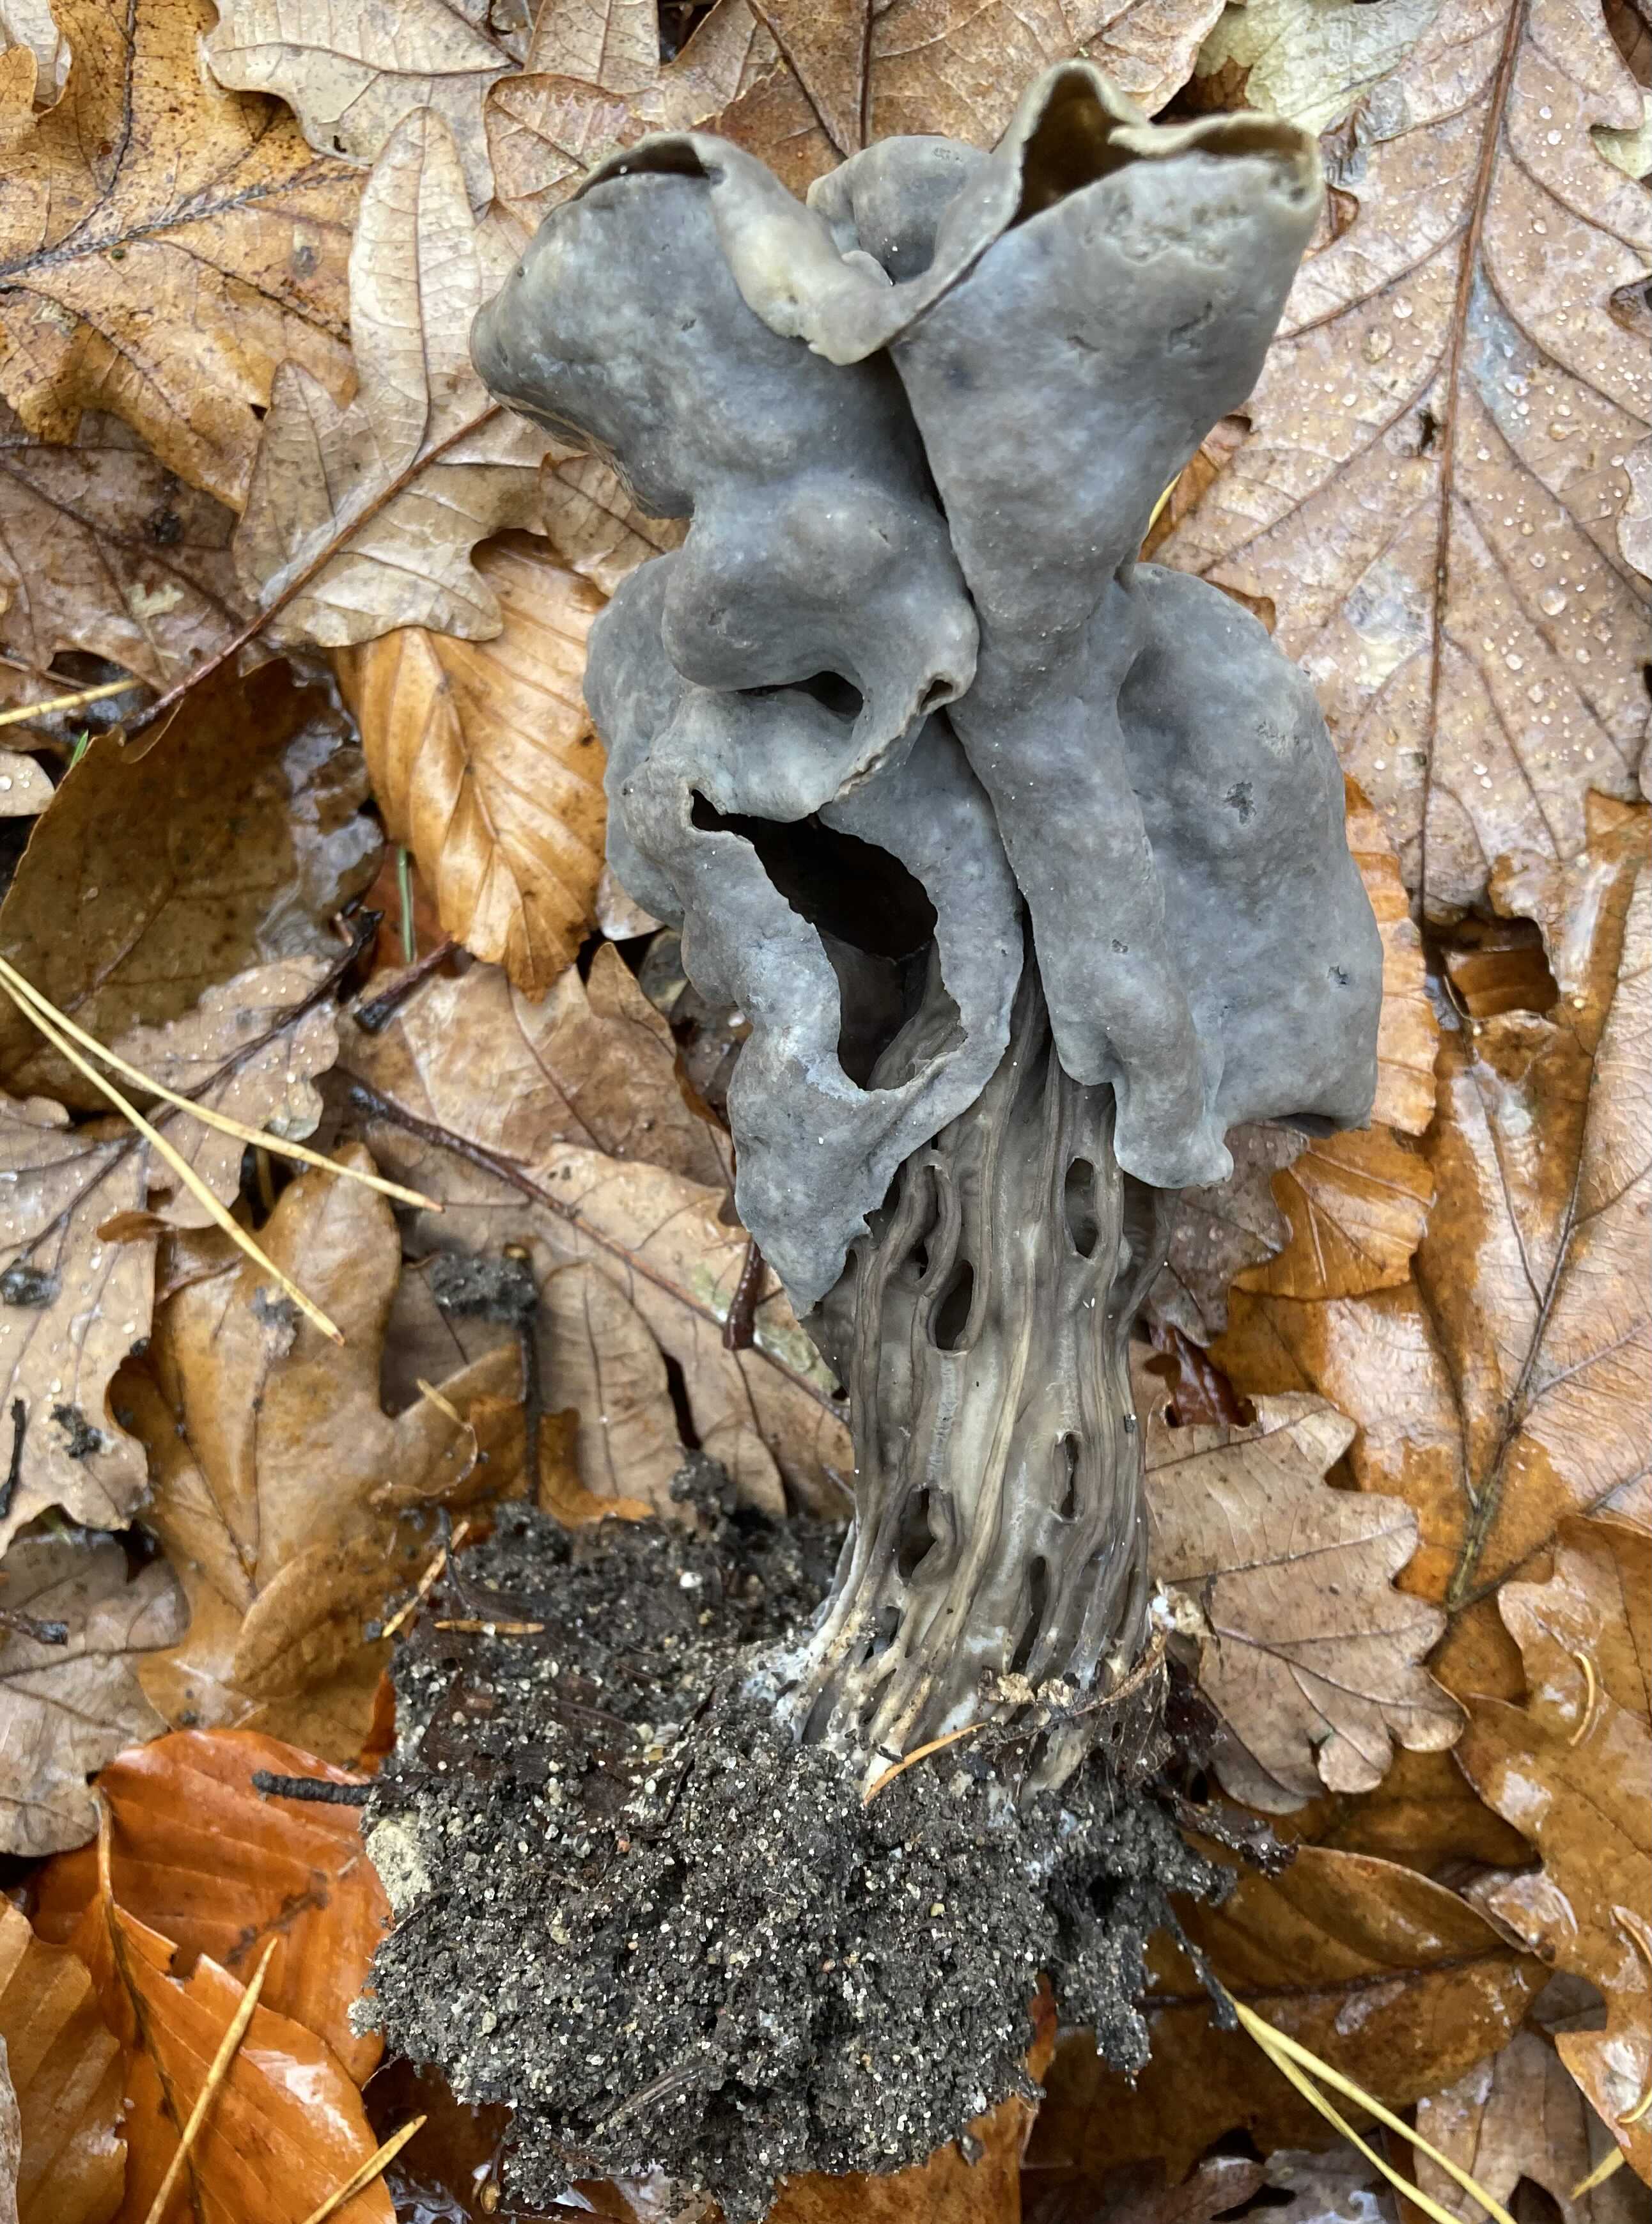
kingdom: Fungi
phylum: Ascomycota
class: Pezizomycetes
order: Pezizales
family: Helvellaceae
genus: Helvella
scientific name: Helvella lacunosa
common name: grubet foldhat
